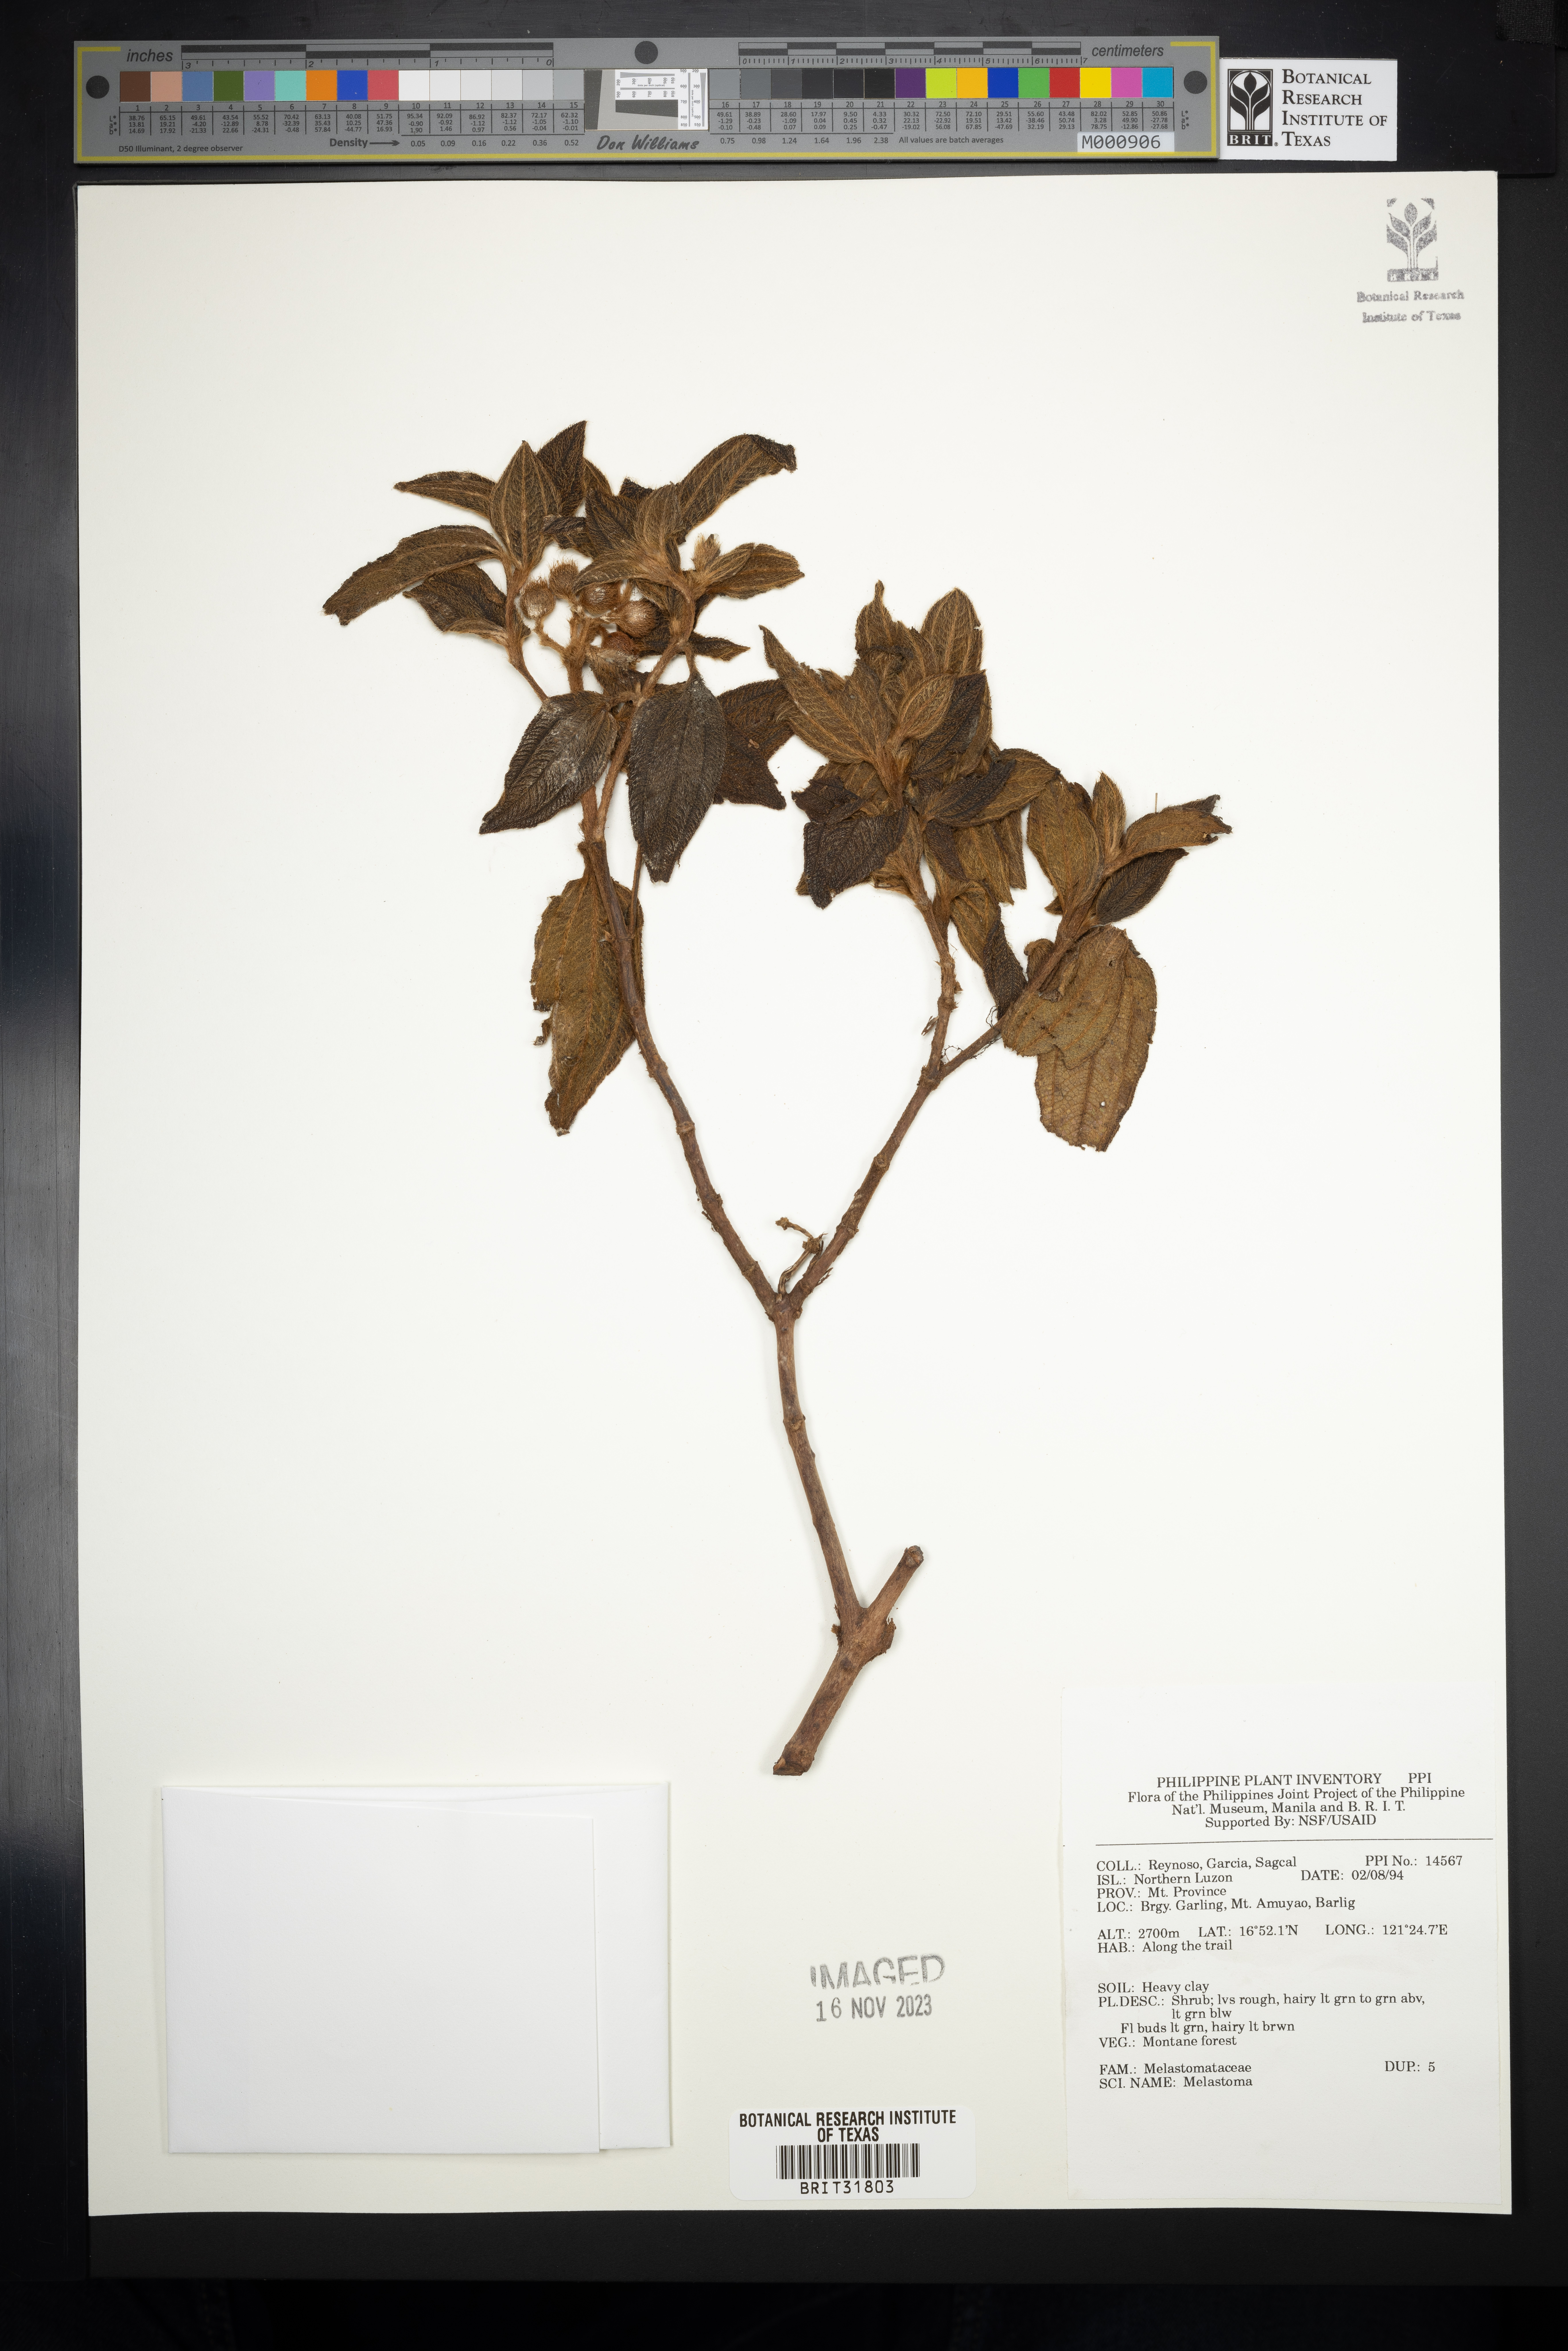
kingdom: Plantae
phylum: Tracheophyta
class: Magnoliopsida
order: Myrtales
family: Melastomataceae
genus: Melastoma
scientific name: Melastoma
